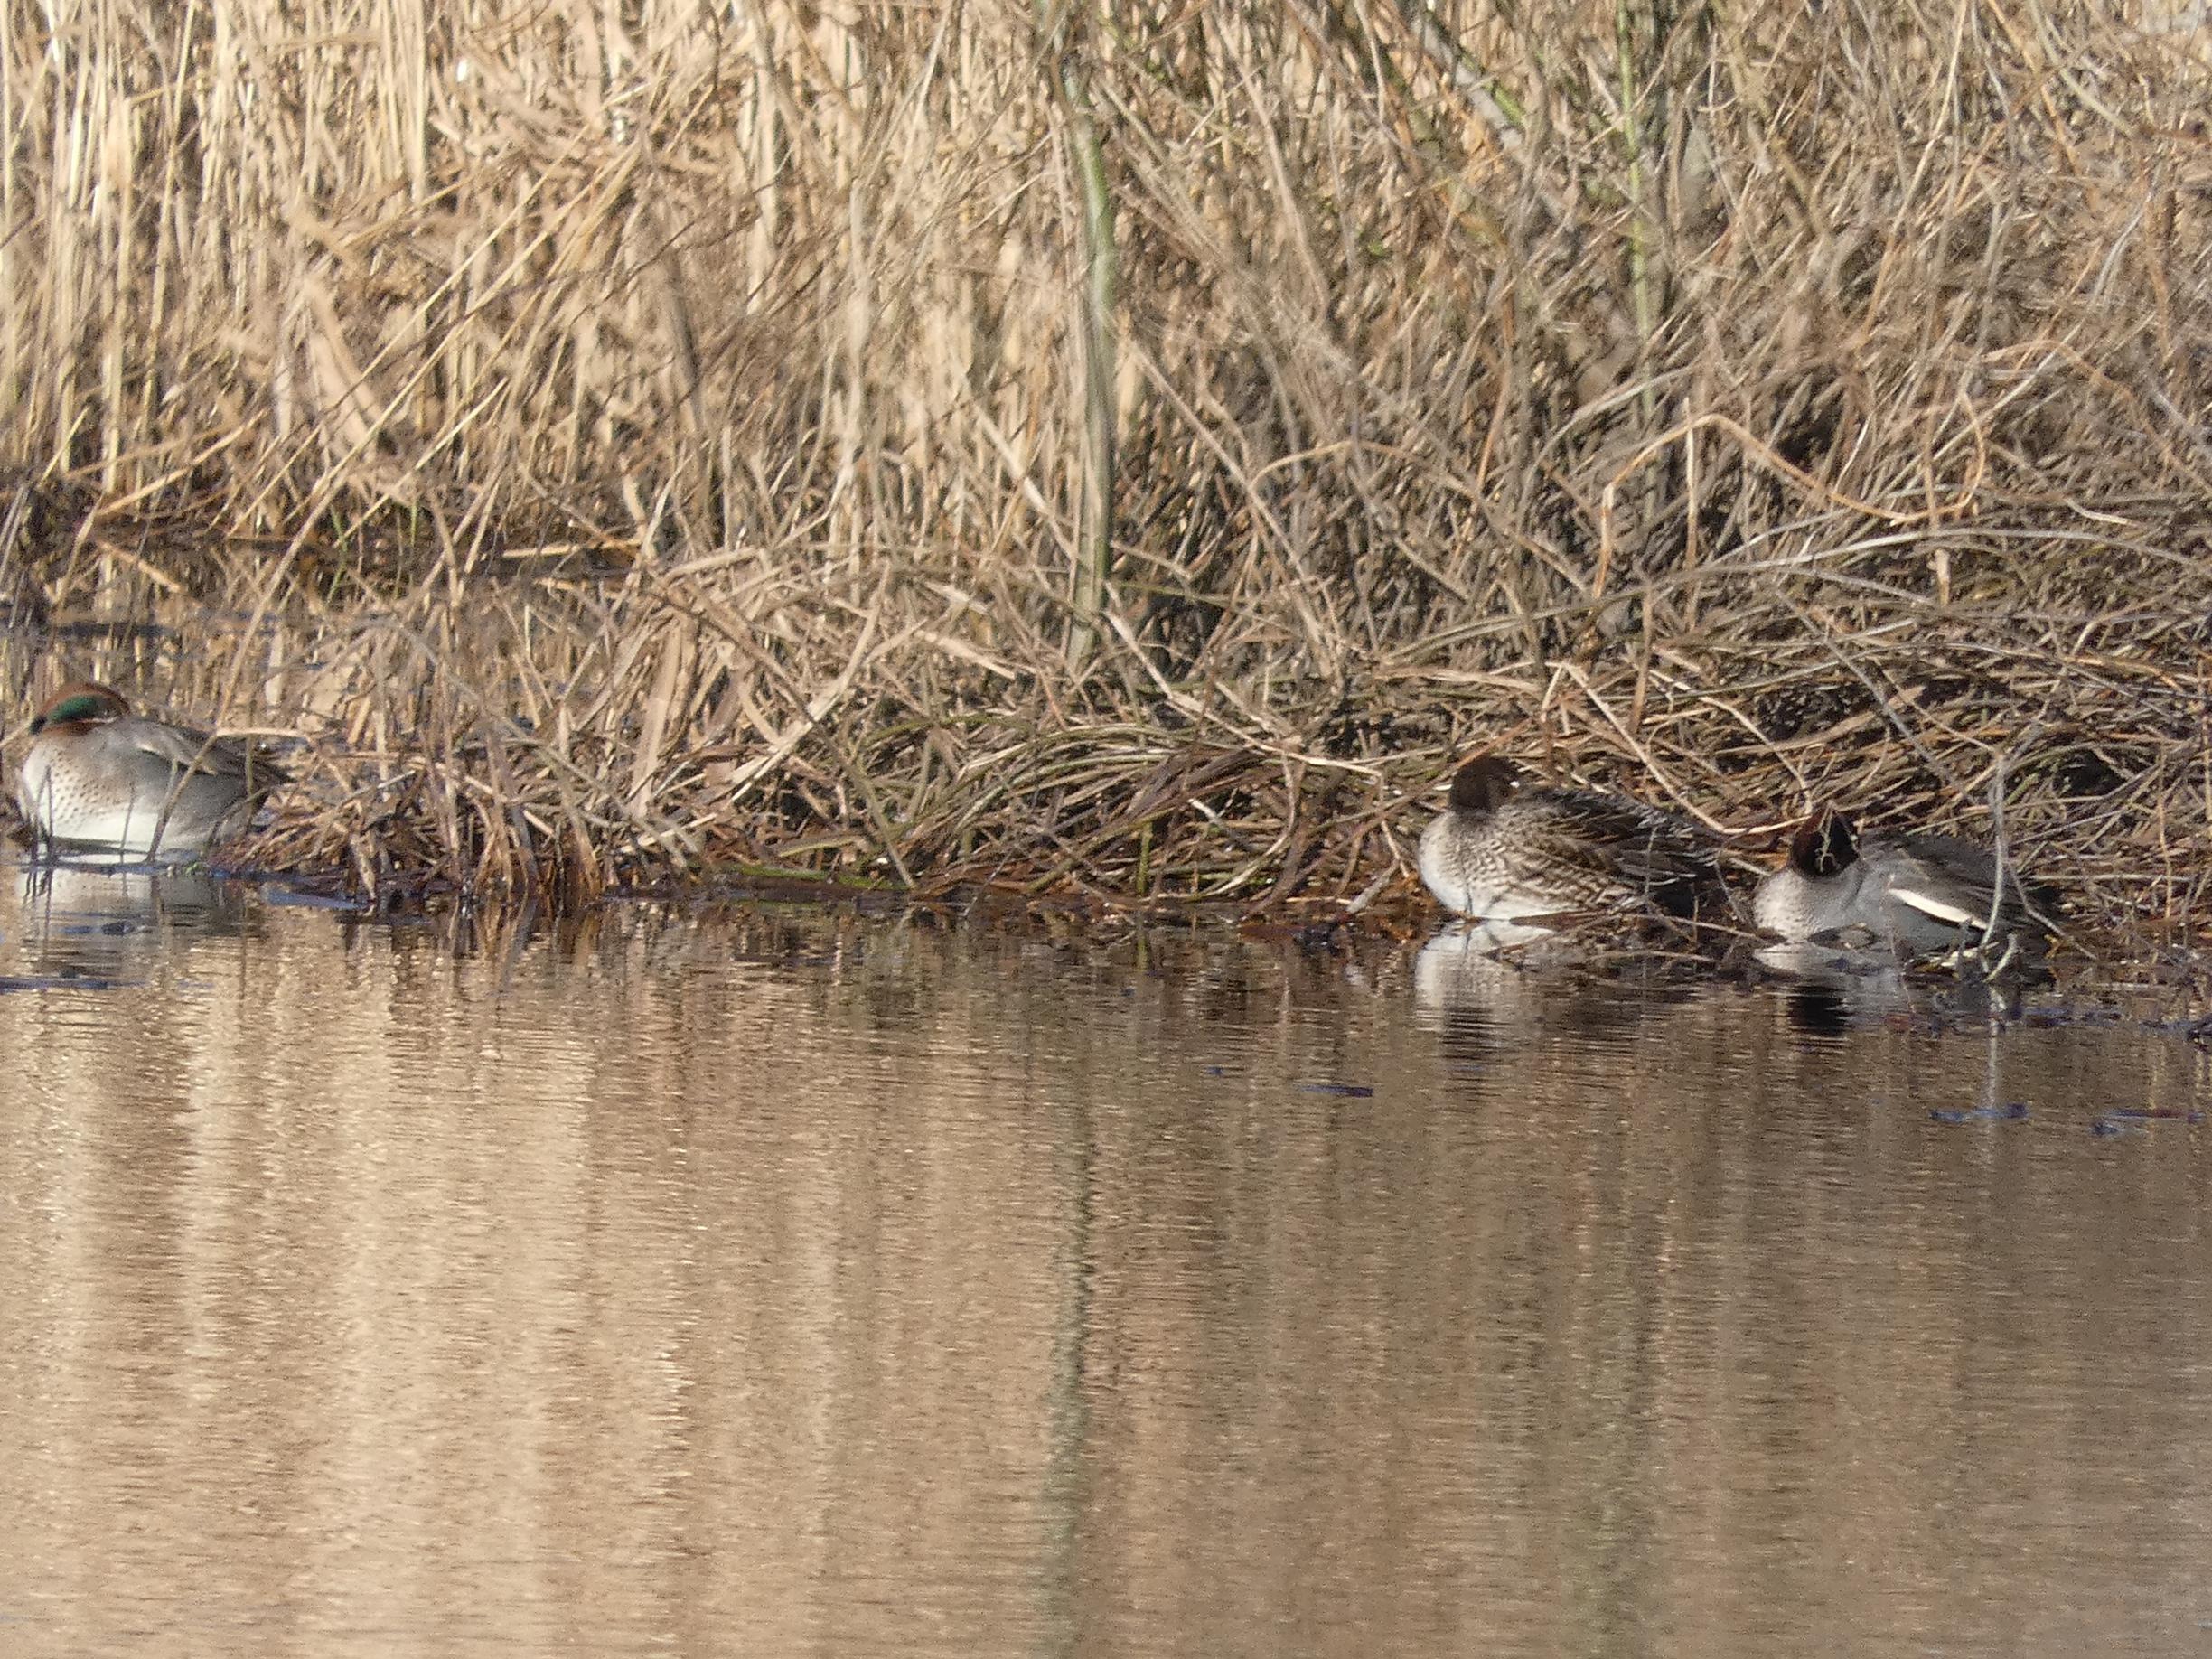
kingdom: Animalia
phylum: Chordata
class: Aves
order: Anseriformes
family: Anatidae
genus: Anas
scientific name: Anas crecca
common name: Krikand
